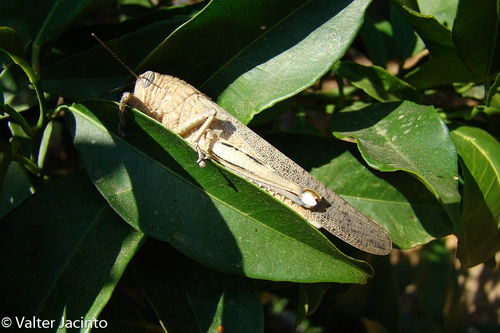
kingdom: Animalia
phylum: Arthropoda
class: Insecta
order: Orthoptera
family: Acrididae
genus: Anacridium
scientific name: Anacridium aegyptium
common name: Egyptian grasshopper
